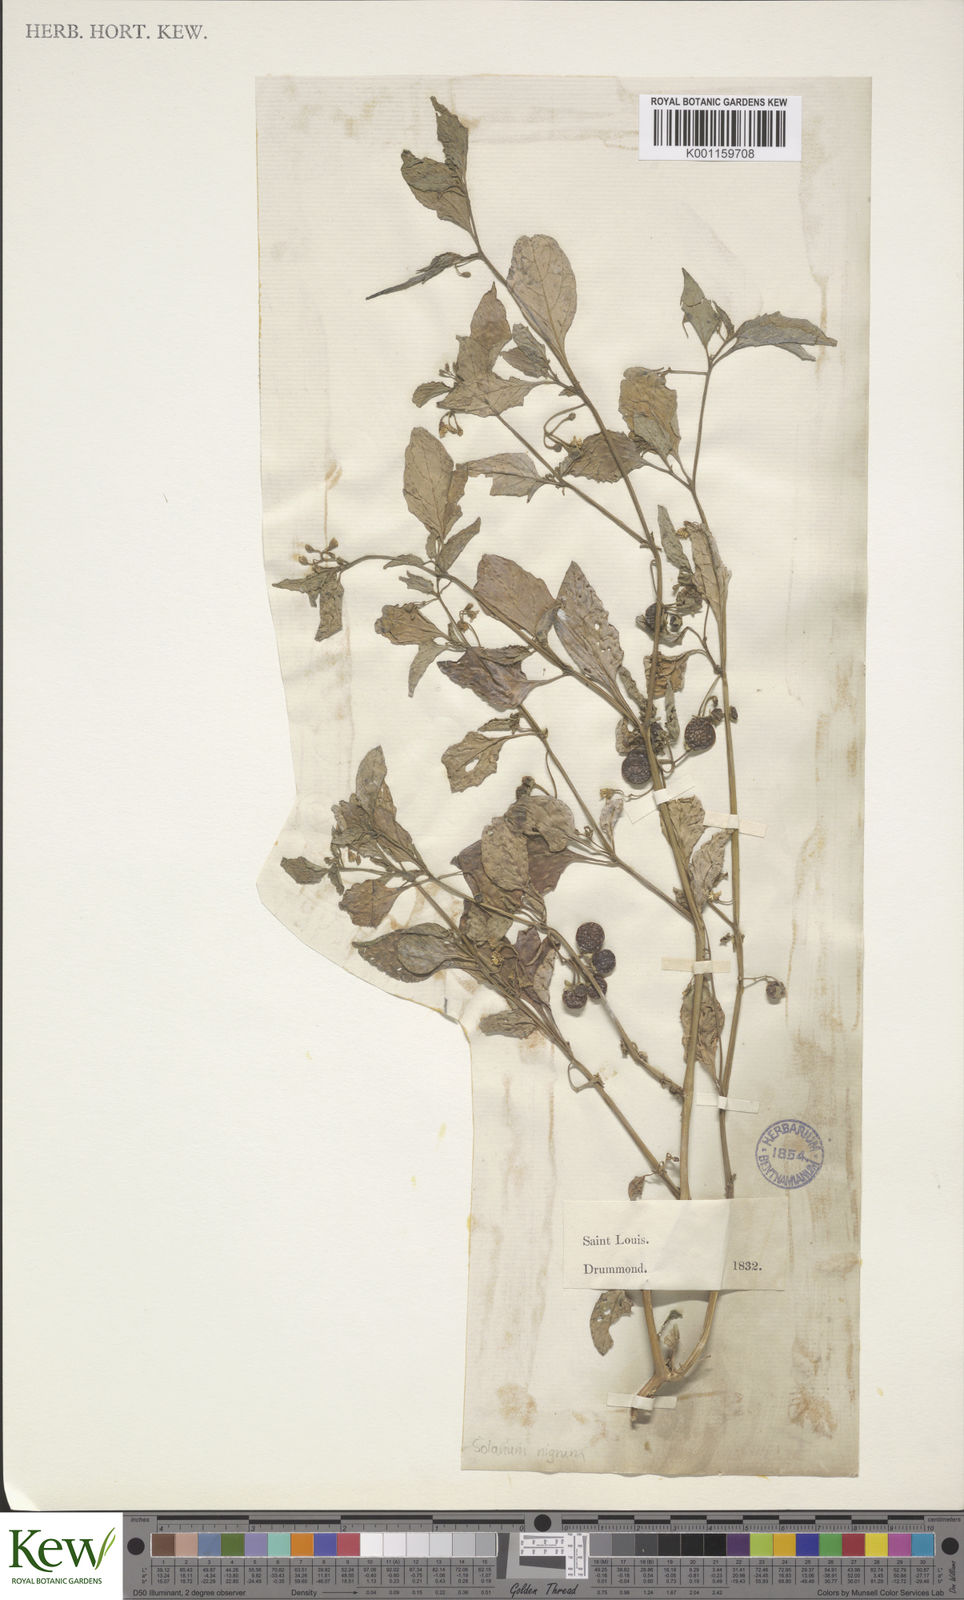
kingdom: Plantae
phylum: Tracheophyta
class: Magnoliopsida
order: Solanales
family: Solanaceae
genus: Solanum
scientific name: Solanum emulans
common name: Eastern black nightshade
